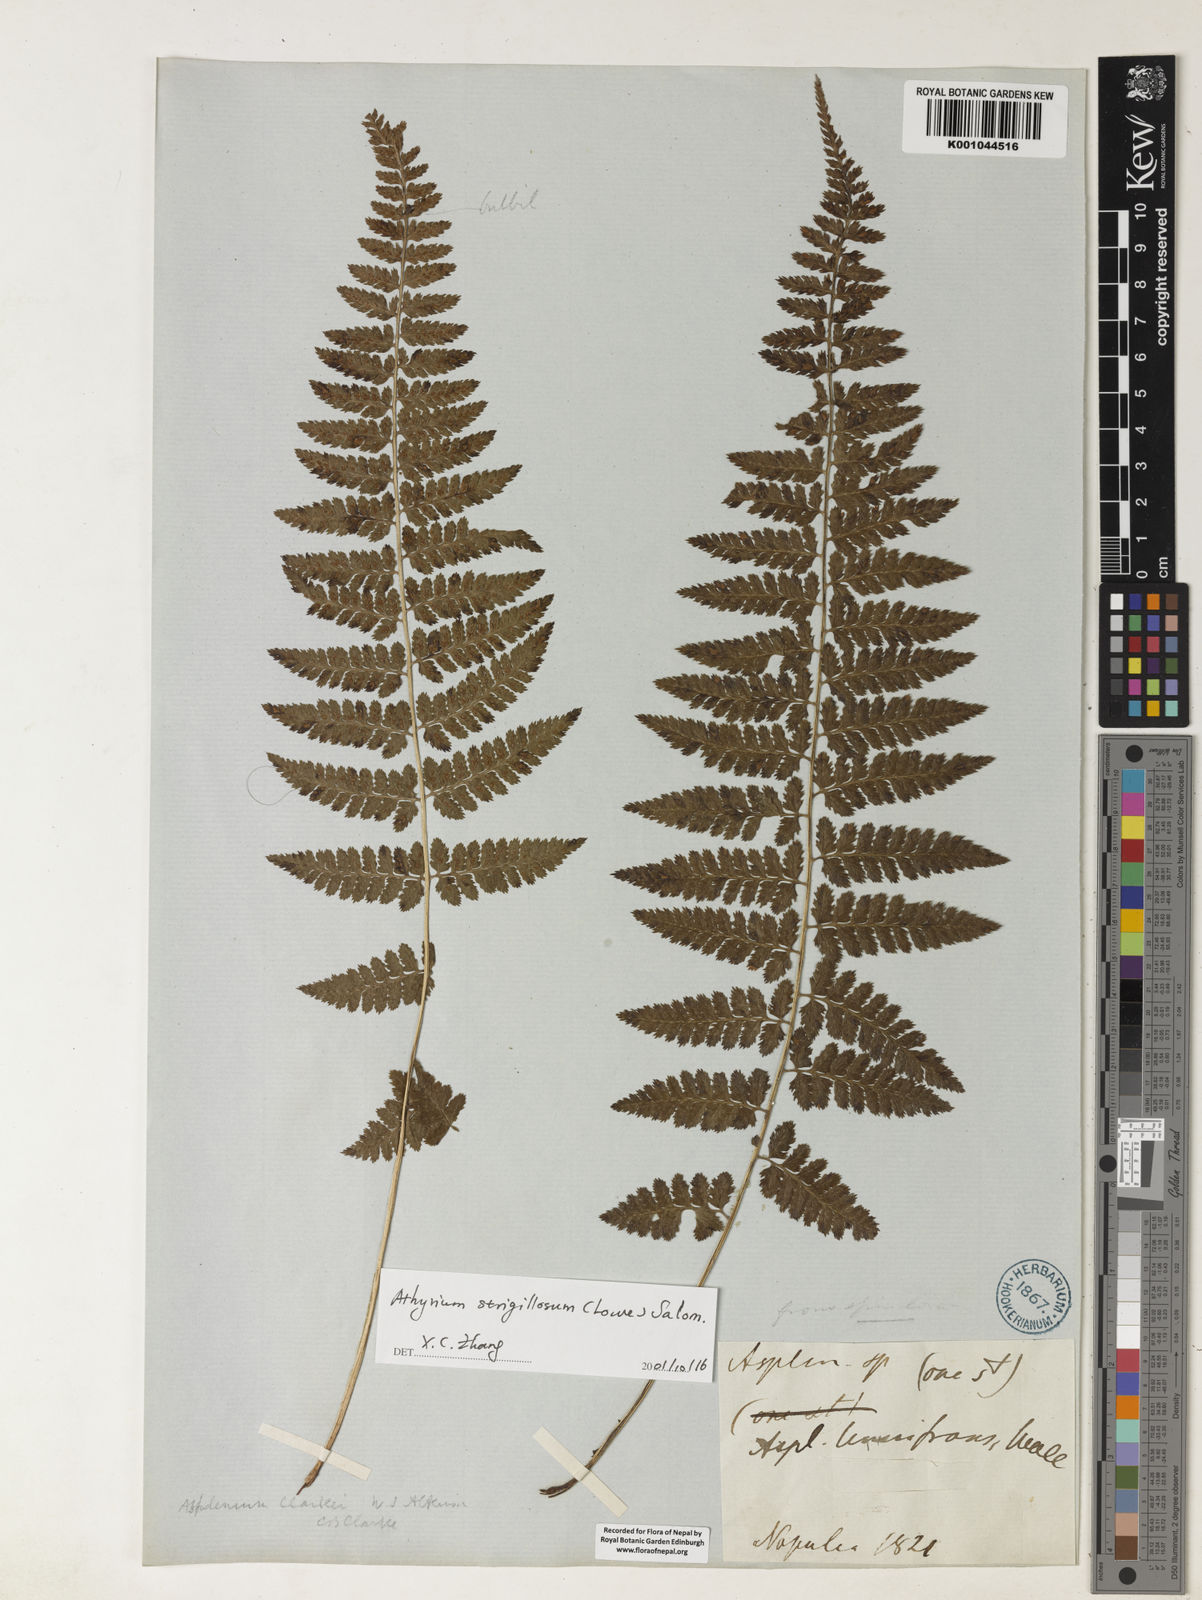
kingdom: Plantae
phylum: Tracheophyta
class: Polypodiopsida
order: Polypodiales
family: Athyriaceae
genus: Athyrium
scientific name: Athyrium nigripes
